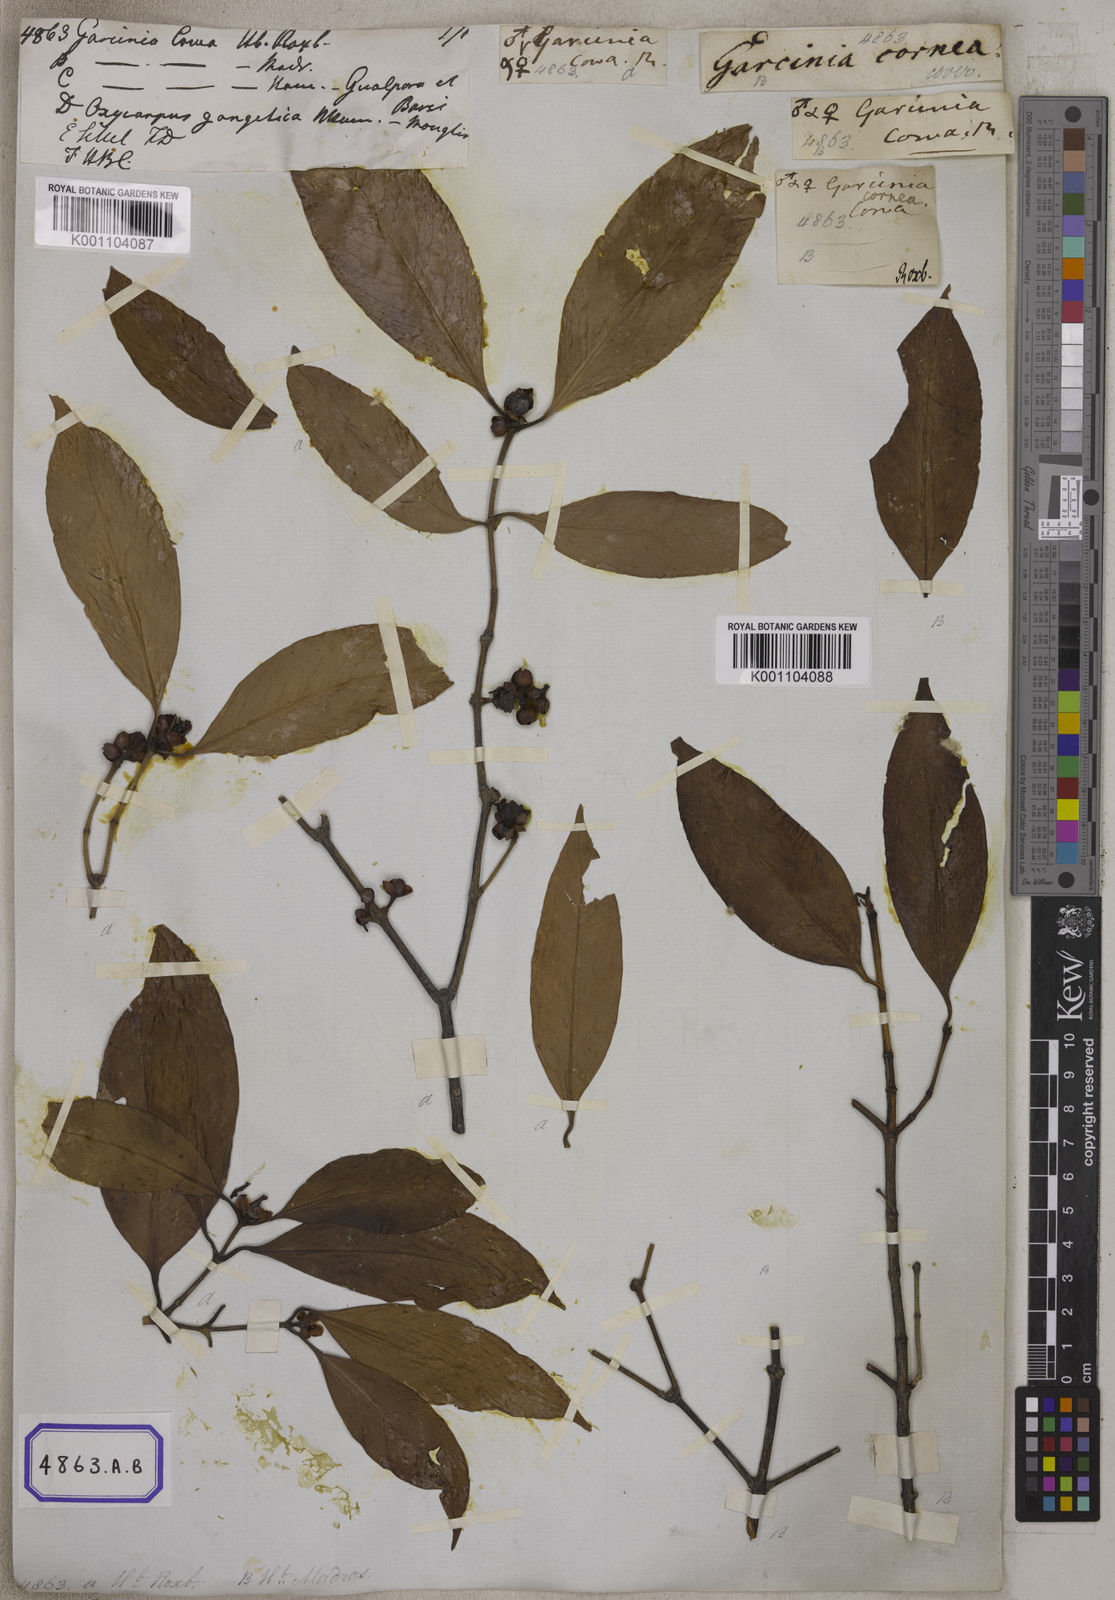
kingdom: Plantae
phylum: Tracheophyta
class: Magnoliopsida
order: Malpighiales
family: Clusiaceae
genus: Garcinia
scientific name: Garcinia
